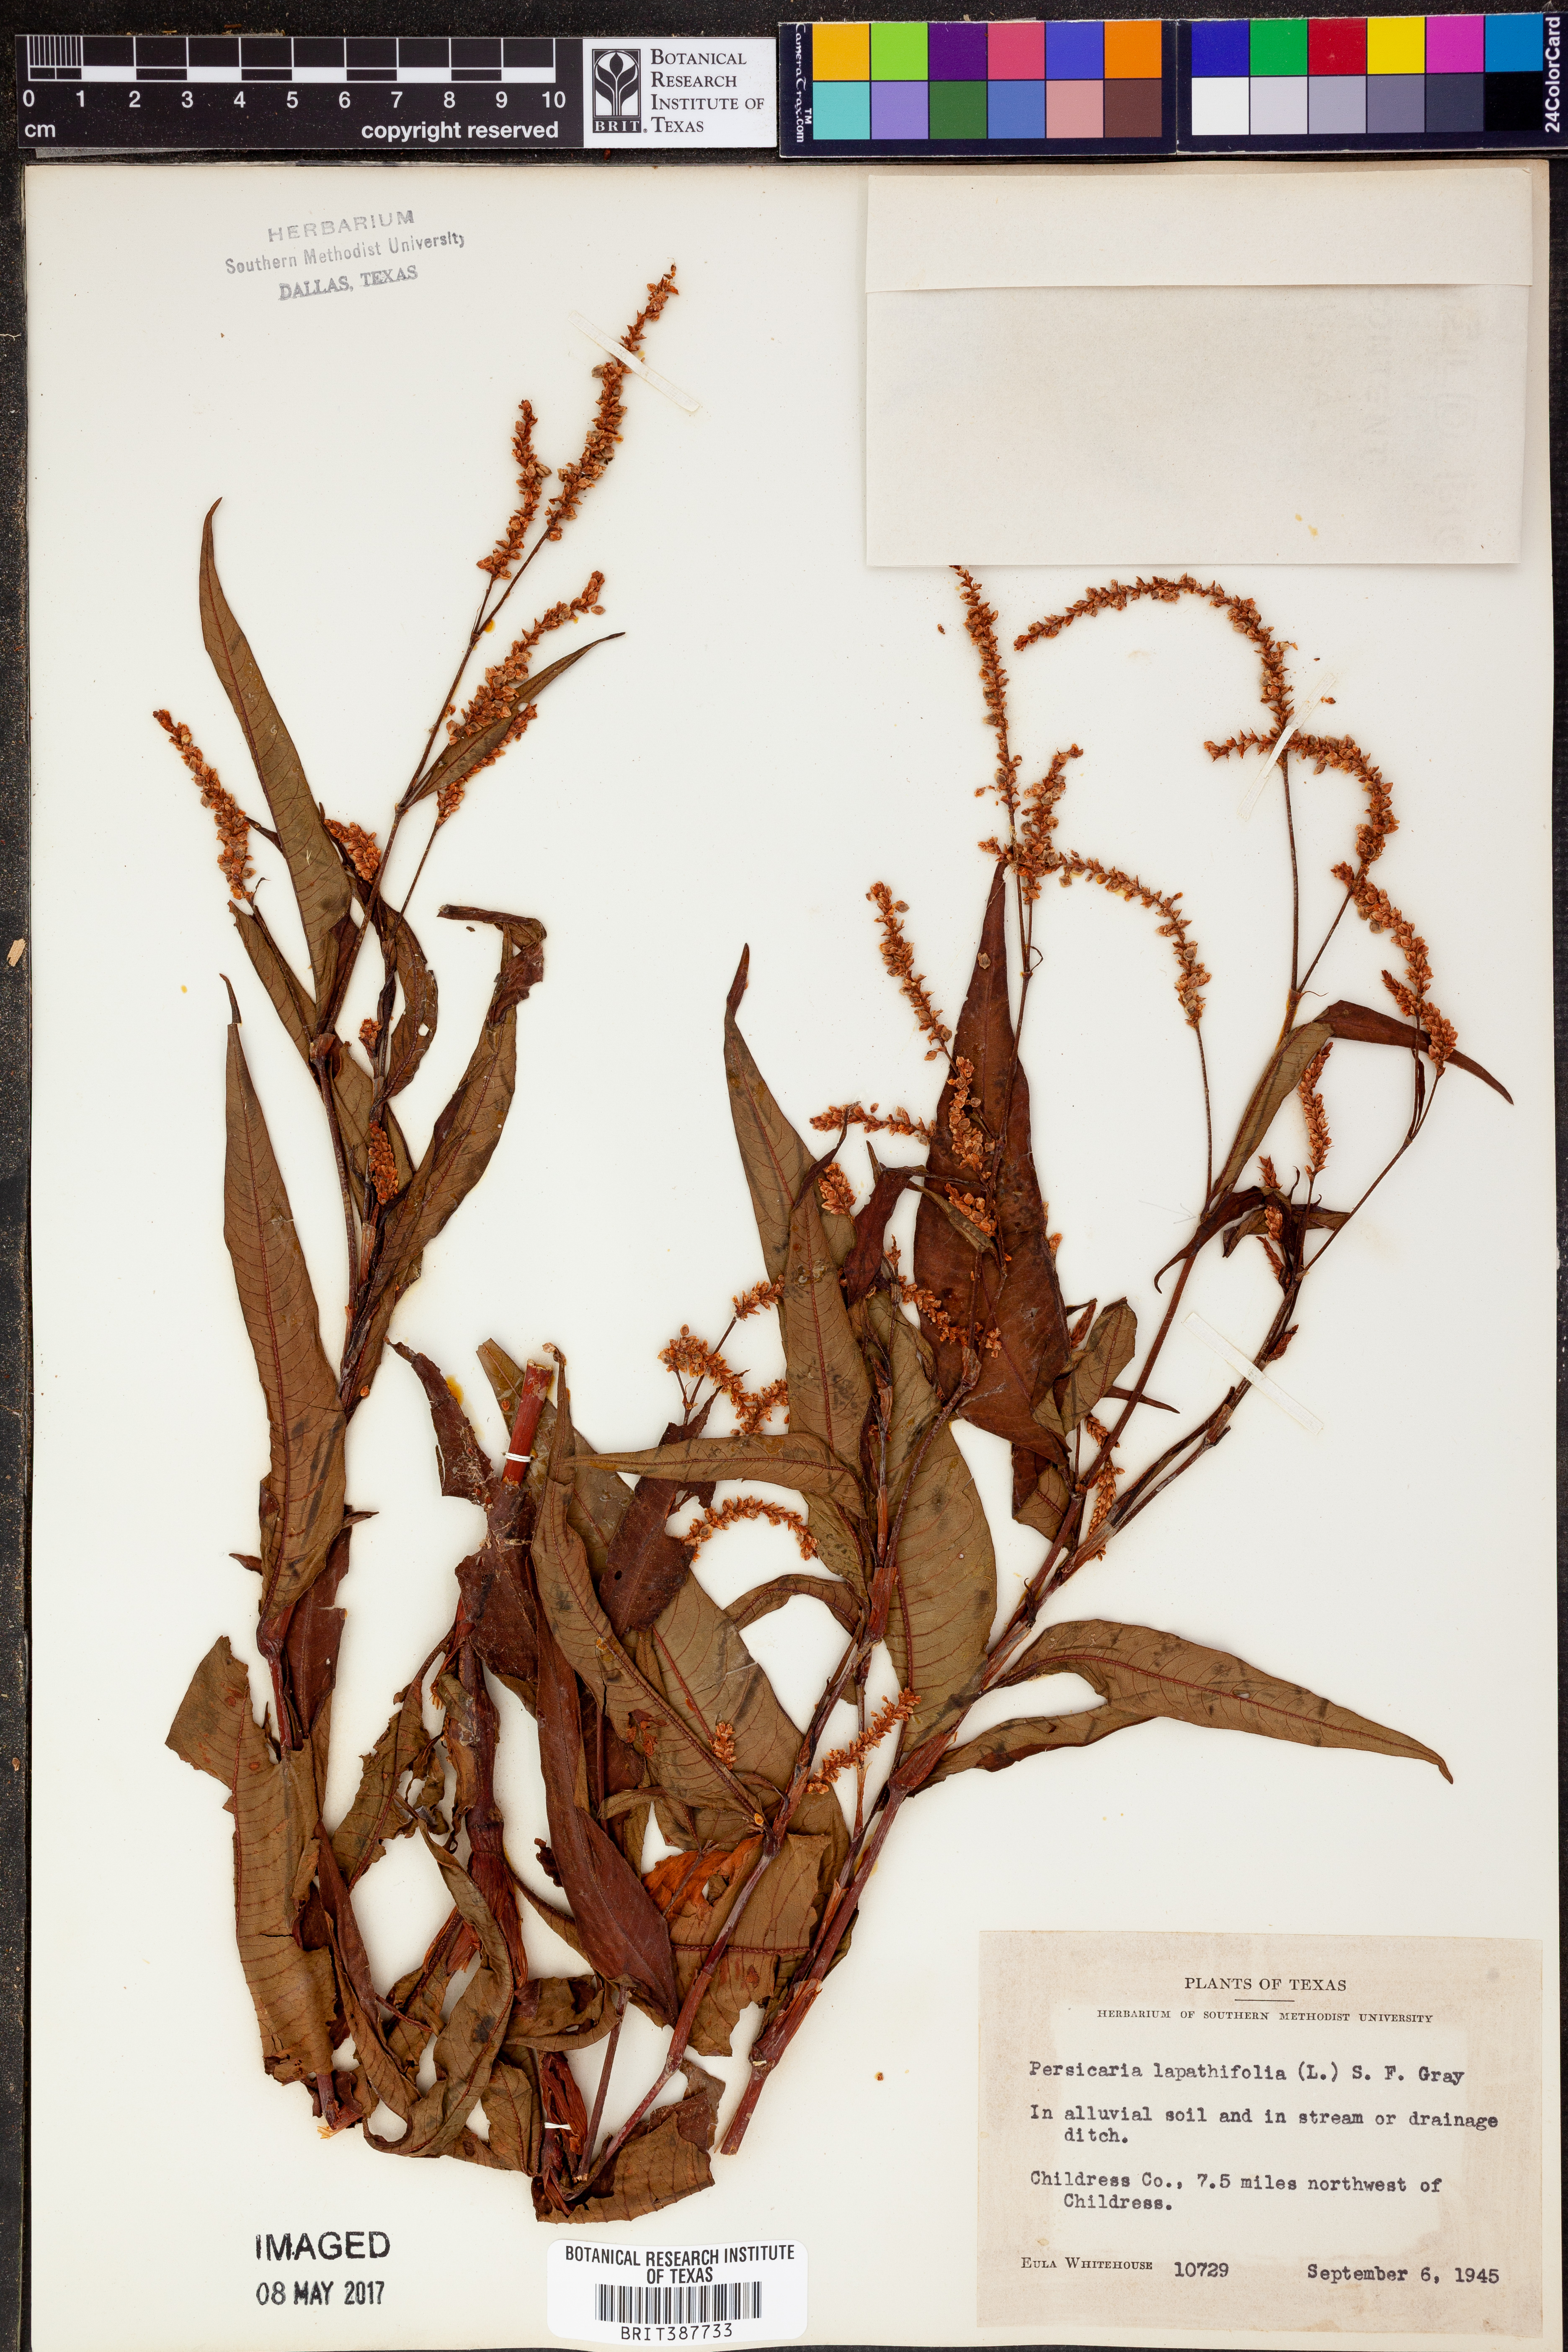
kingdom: Plantae
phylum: Tracheophyta
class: Magnoliopsida
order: Caryophyllales
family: Polygonaceae
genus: Persicaria
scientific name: Persicaria lapathifolia
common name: Curlytop knotweed
